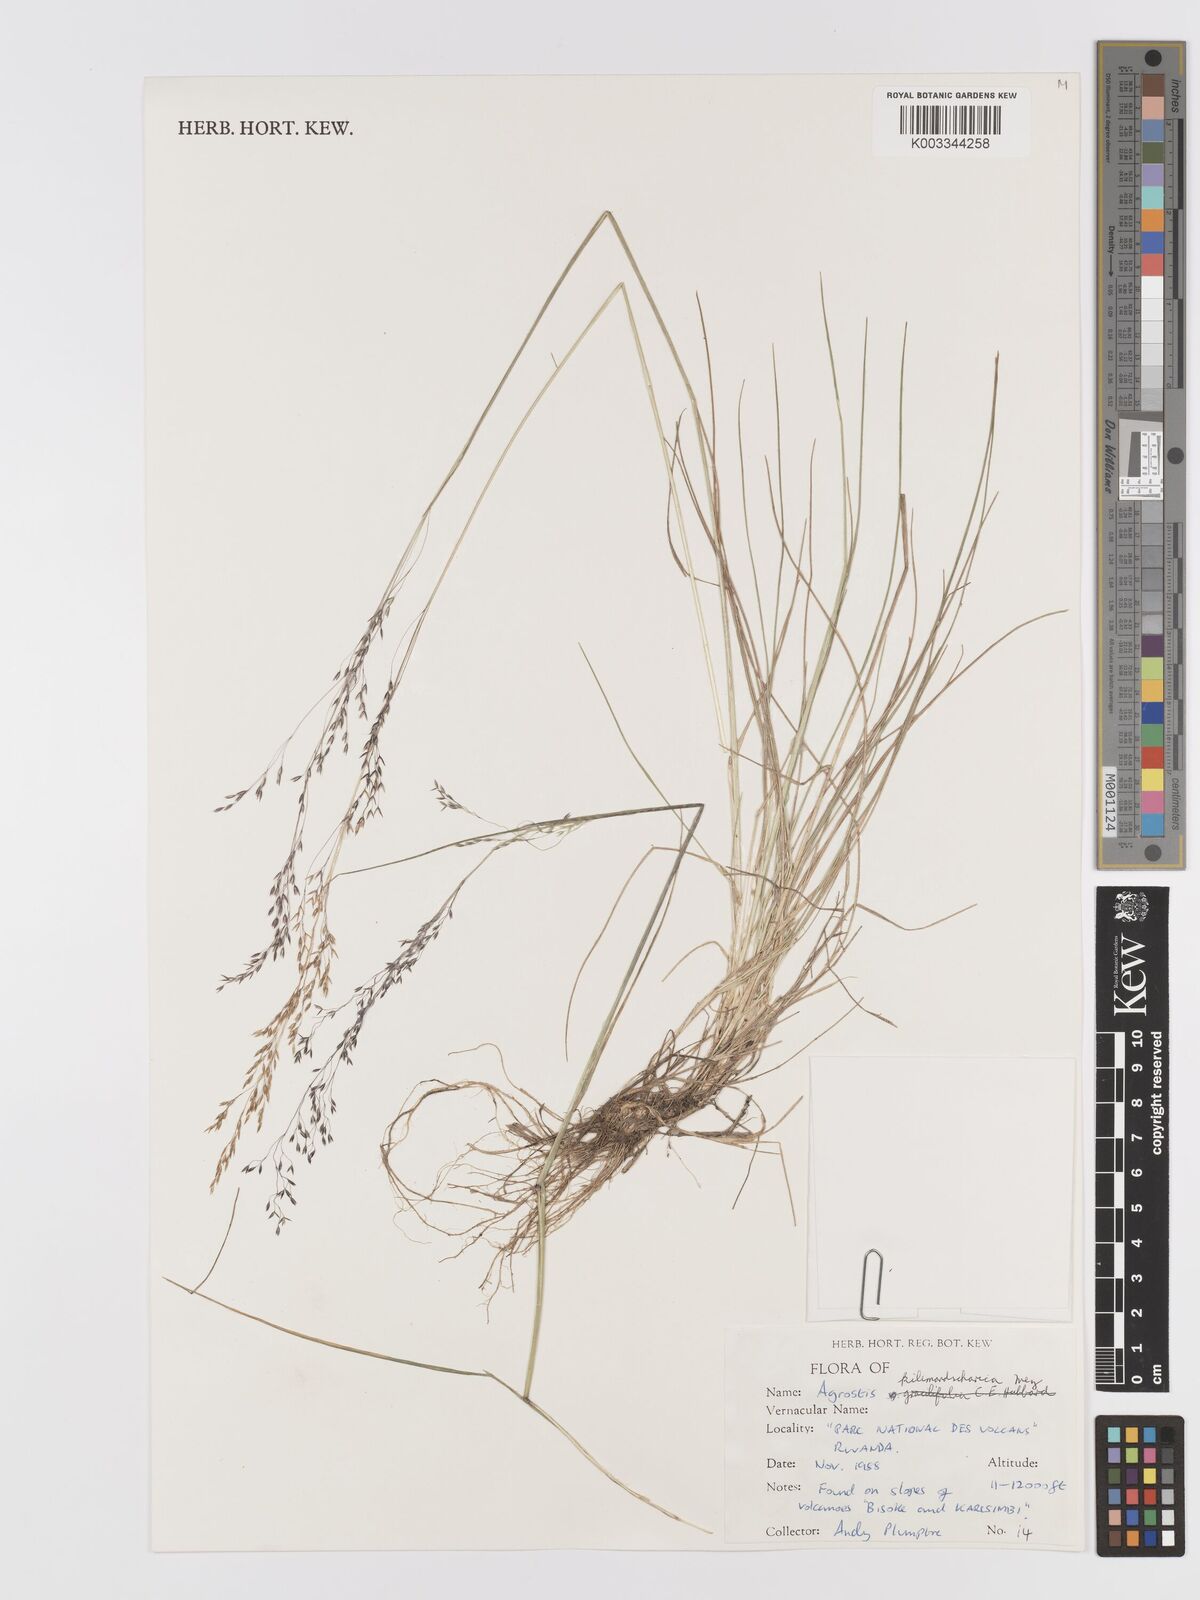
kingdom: Plantae
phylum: Tracheophyta
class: Liliopsida
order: Poales
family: Poaceae
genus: Agrostis
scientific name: Agrostis kilimandscharica
